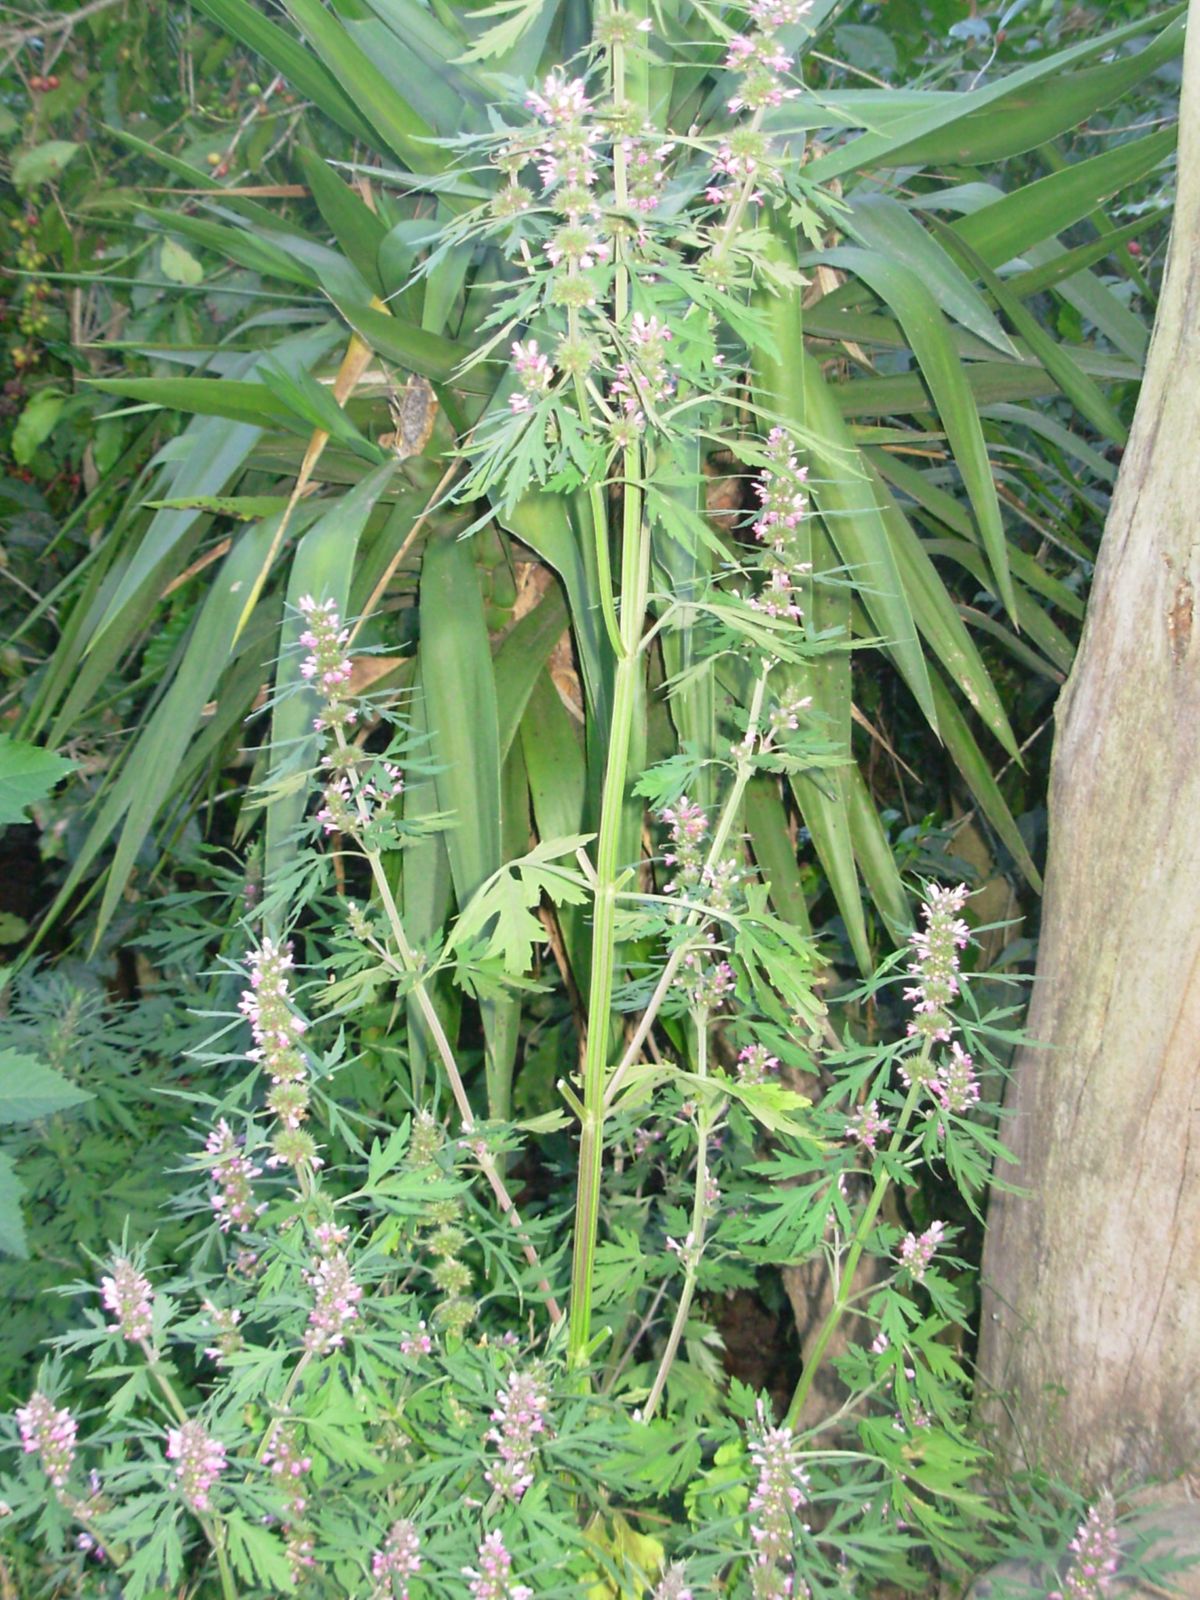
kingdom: Plantae
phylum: Tracheophyta
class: Magnoliopsida
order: Lamiales
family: Lamiaceae
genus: Leonurus
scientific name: Leonurus japonicus
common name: Honeyweed
